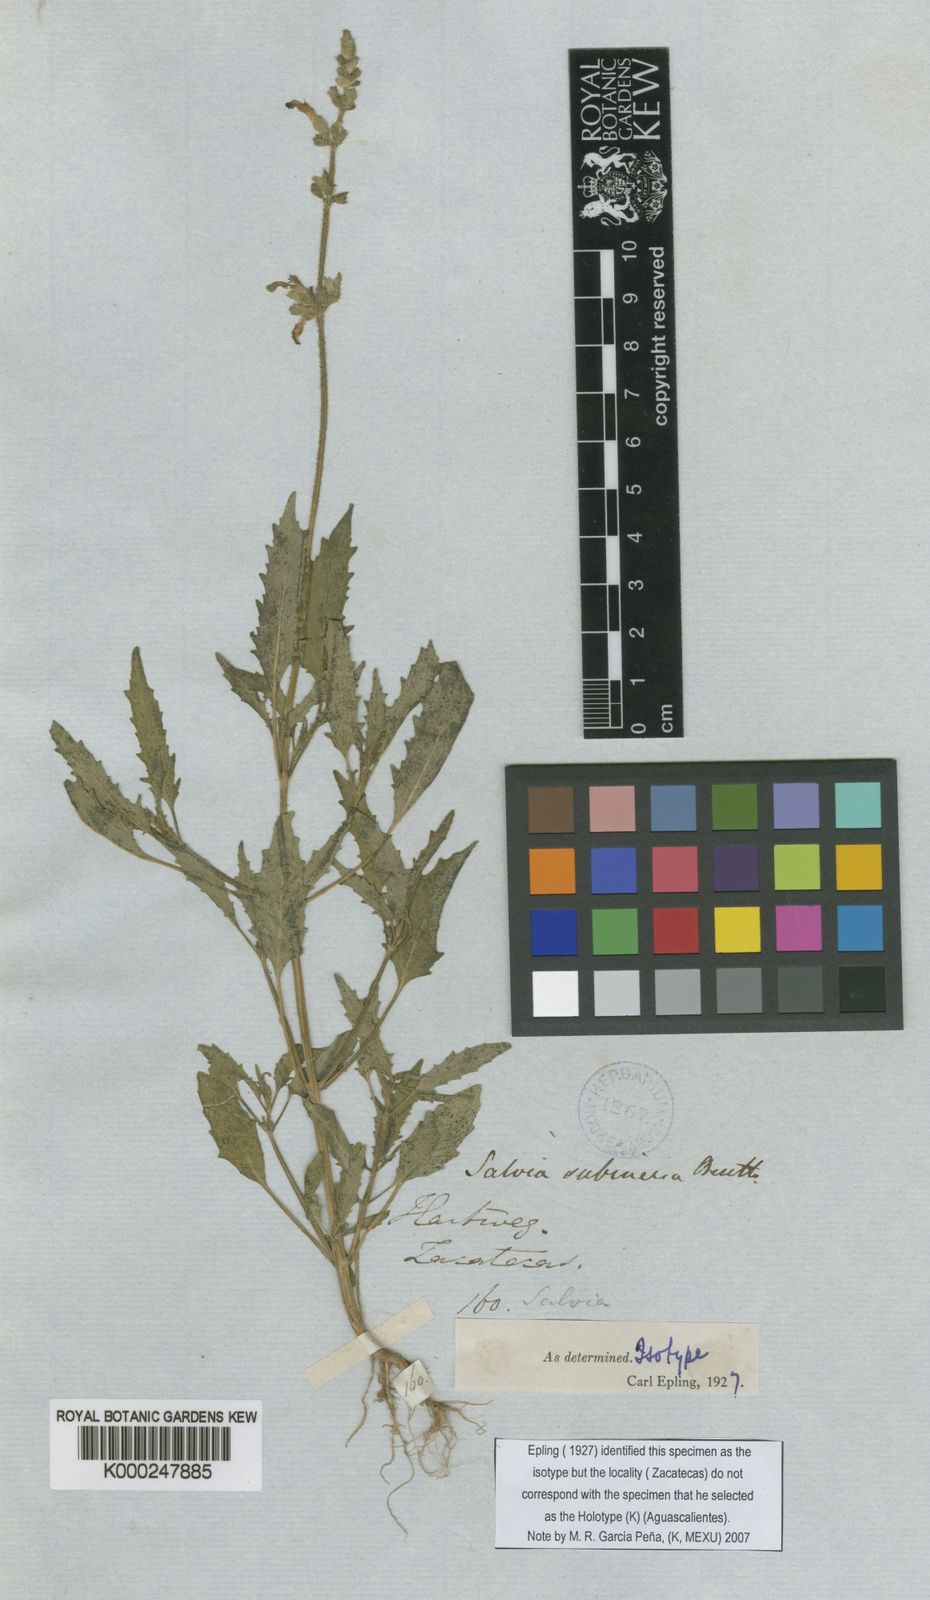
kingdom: Plantae
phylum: Tracheophyta
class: Magnoliopsida
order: Lamiales
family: Lamiaceae
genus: Salvia
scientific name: Salvia subincisa
